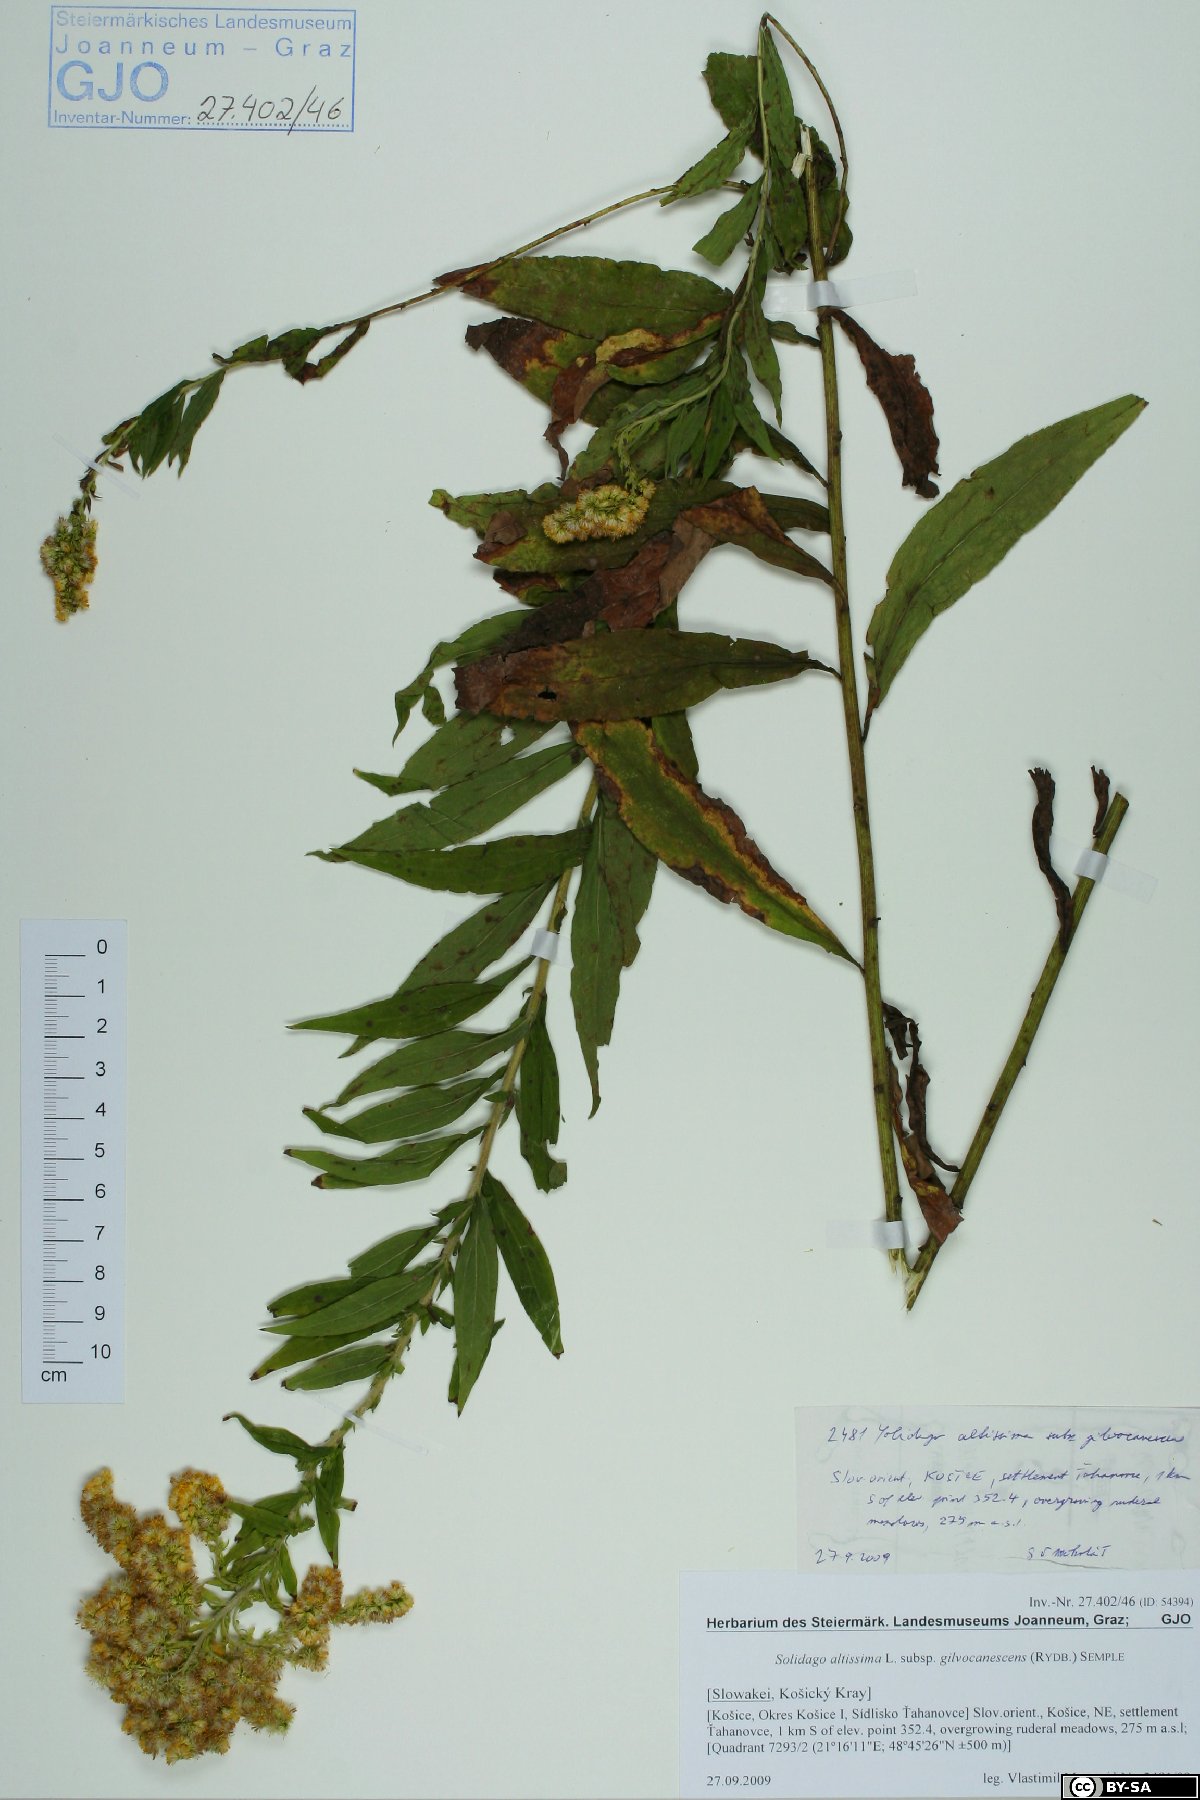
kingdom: Plantae
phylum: Tracheophyta
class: Magnoliopsida
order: Asterales
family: Asteraceae
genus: Solidago
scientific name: Solidago altissima
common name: Late goldenrod
